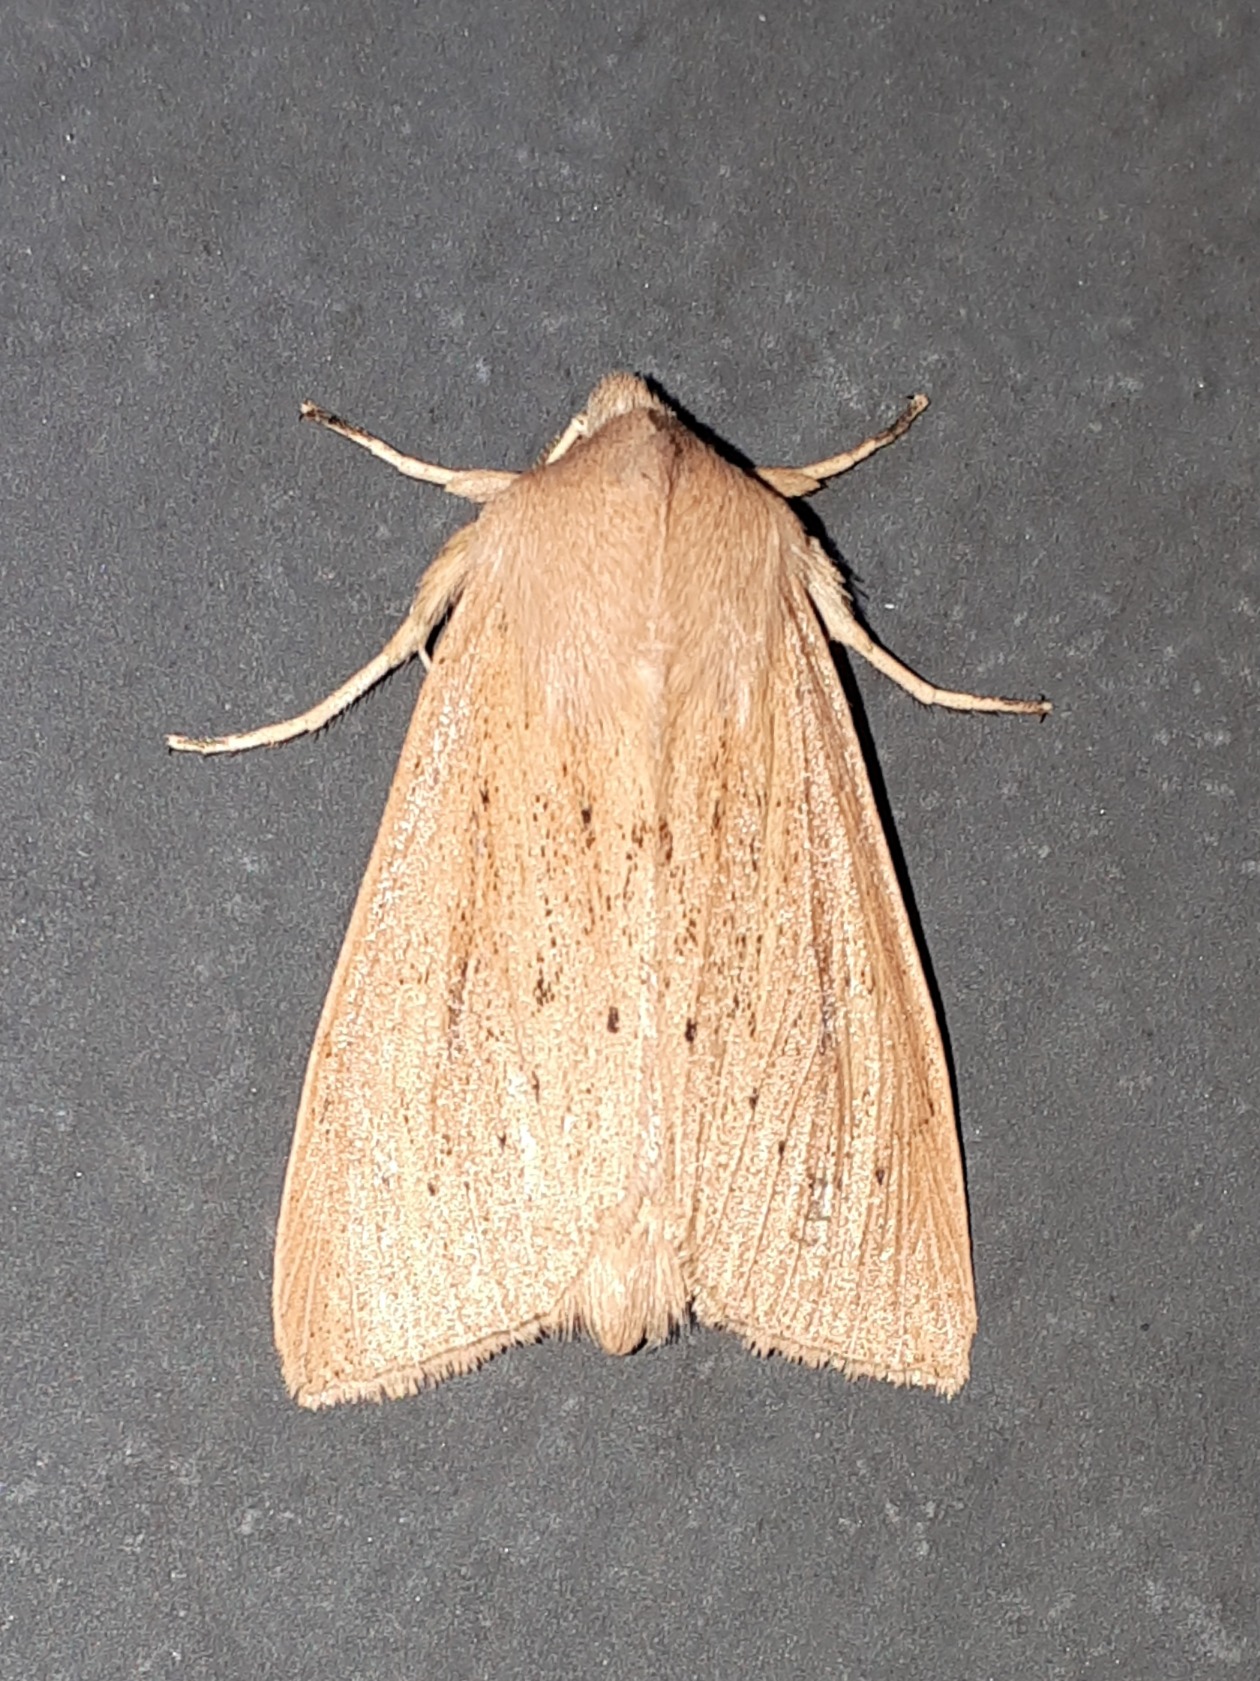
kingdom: Animalia
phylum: Arthropoda
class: Insecta
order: Lepidoptera
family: Noctuidae
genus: Rhizedra
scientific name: Rhizedra lutosa
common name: Stor sivugle
